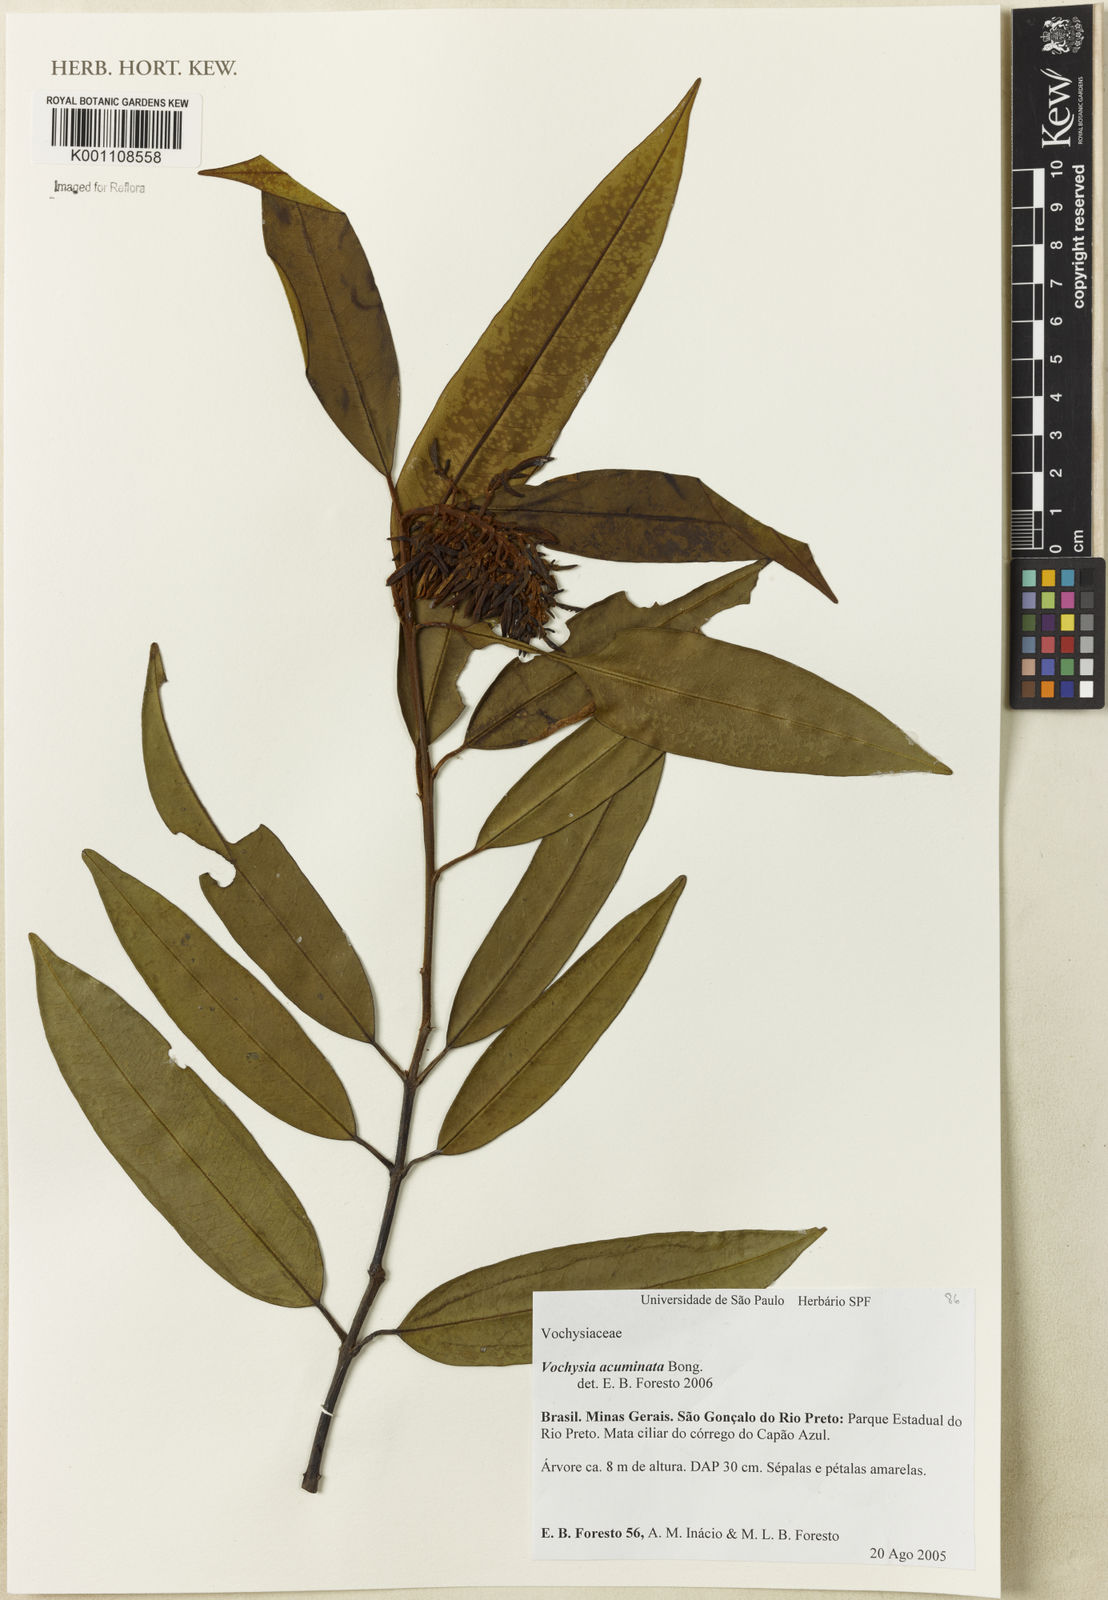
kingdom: Plantae
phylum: Tracheophyta
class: Magnoliopsida
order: Myrtales
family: Vochysiaceae
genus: Vochysia
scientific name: Vochysia acuminata
